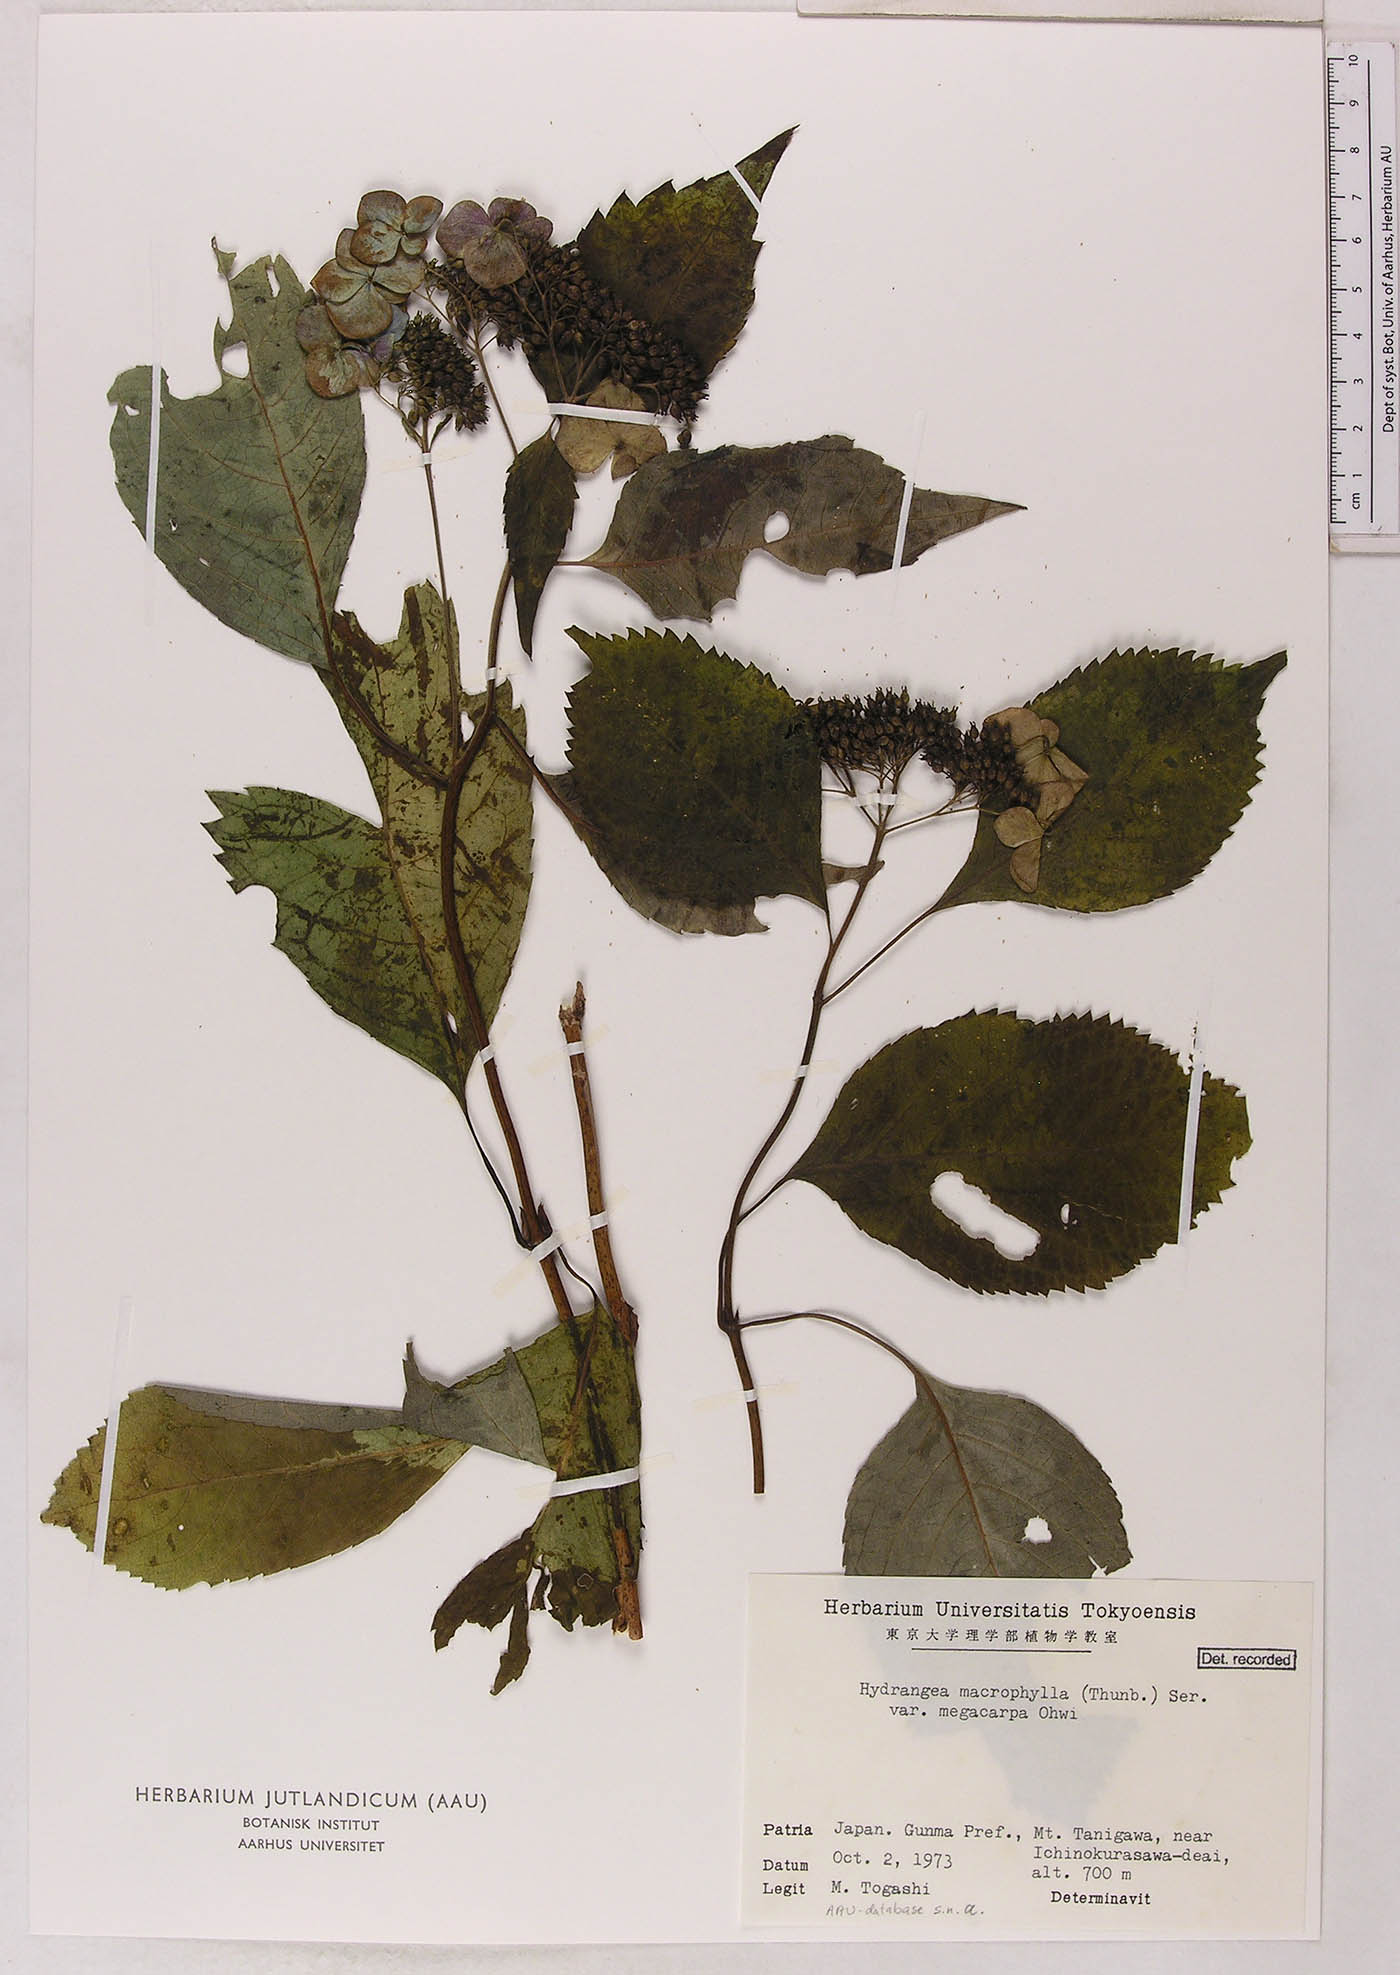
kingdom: Plantae
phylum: Tracheophyta
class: Magnoliopsida
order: Cornales
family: Hydrangeaceae
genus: Hydrangea
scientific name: Hydrangea serrata
